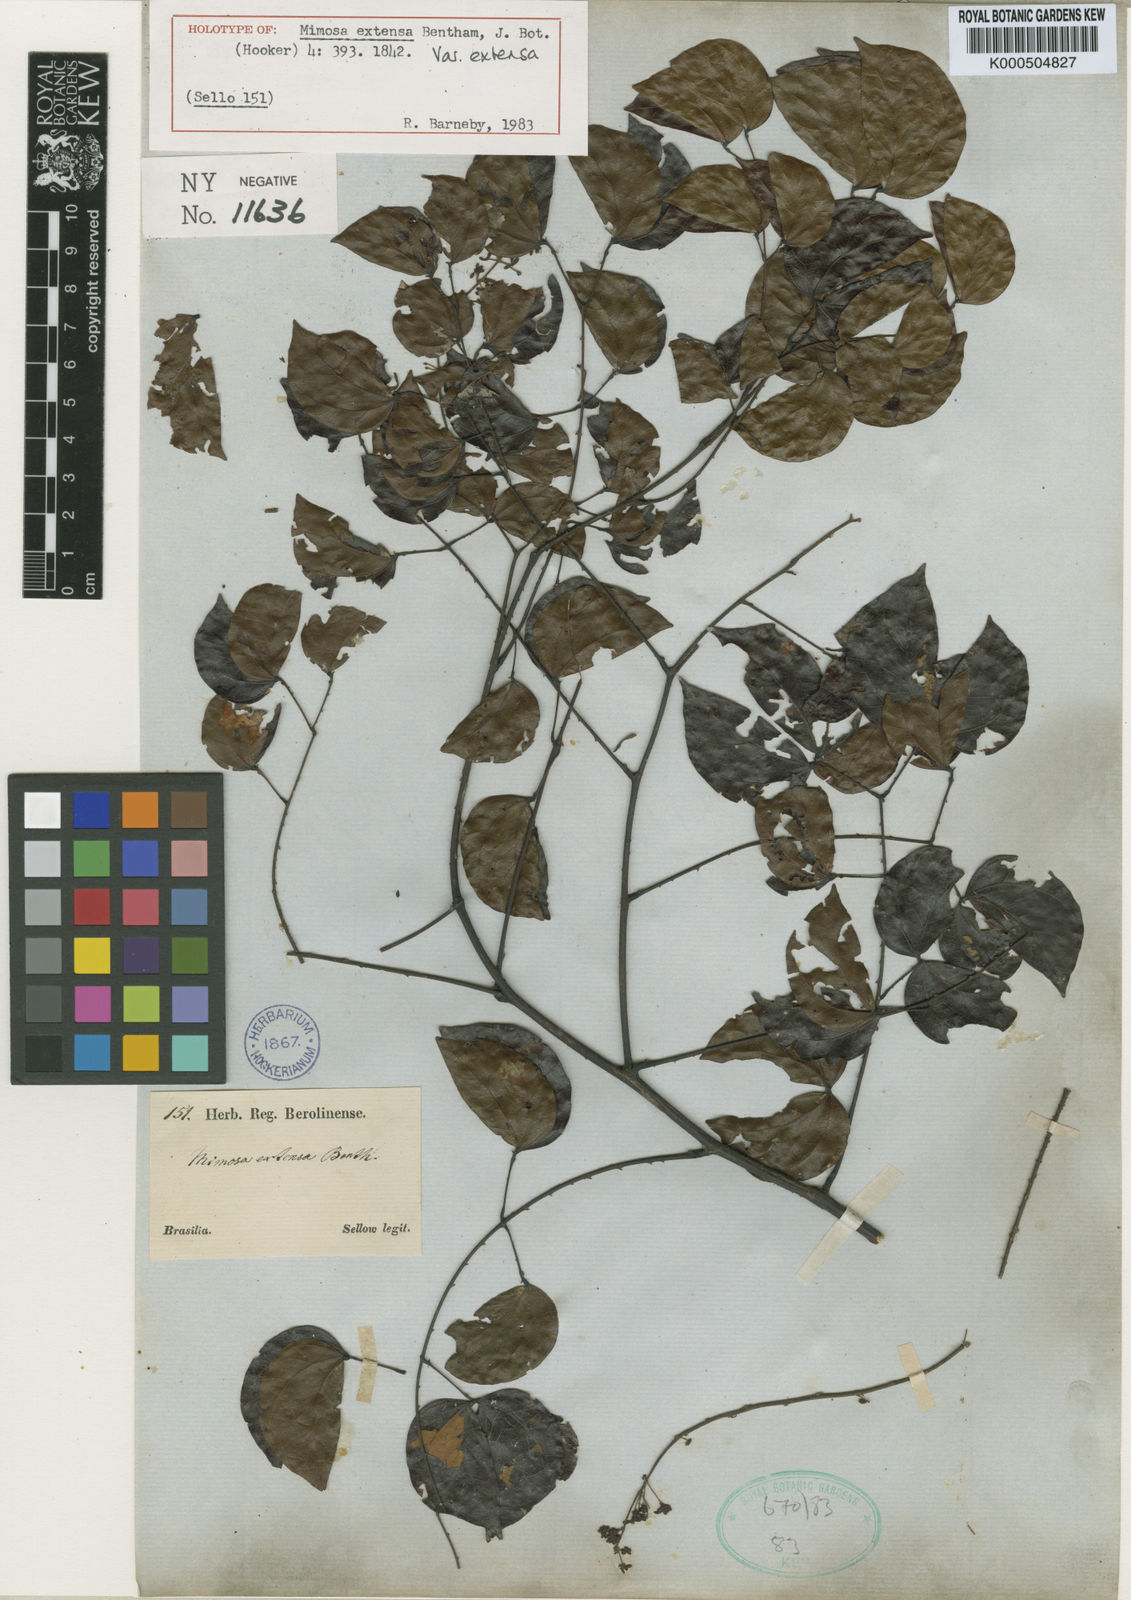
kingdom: Plantae
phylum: Tracheophyta
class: Magnoliopsida
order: Fabales
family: Fabaceae
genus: Mimosa
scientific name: Mimosa extensa
